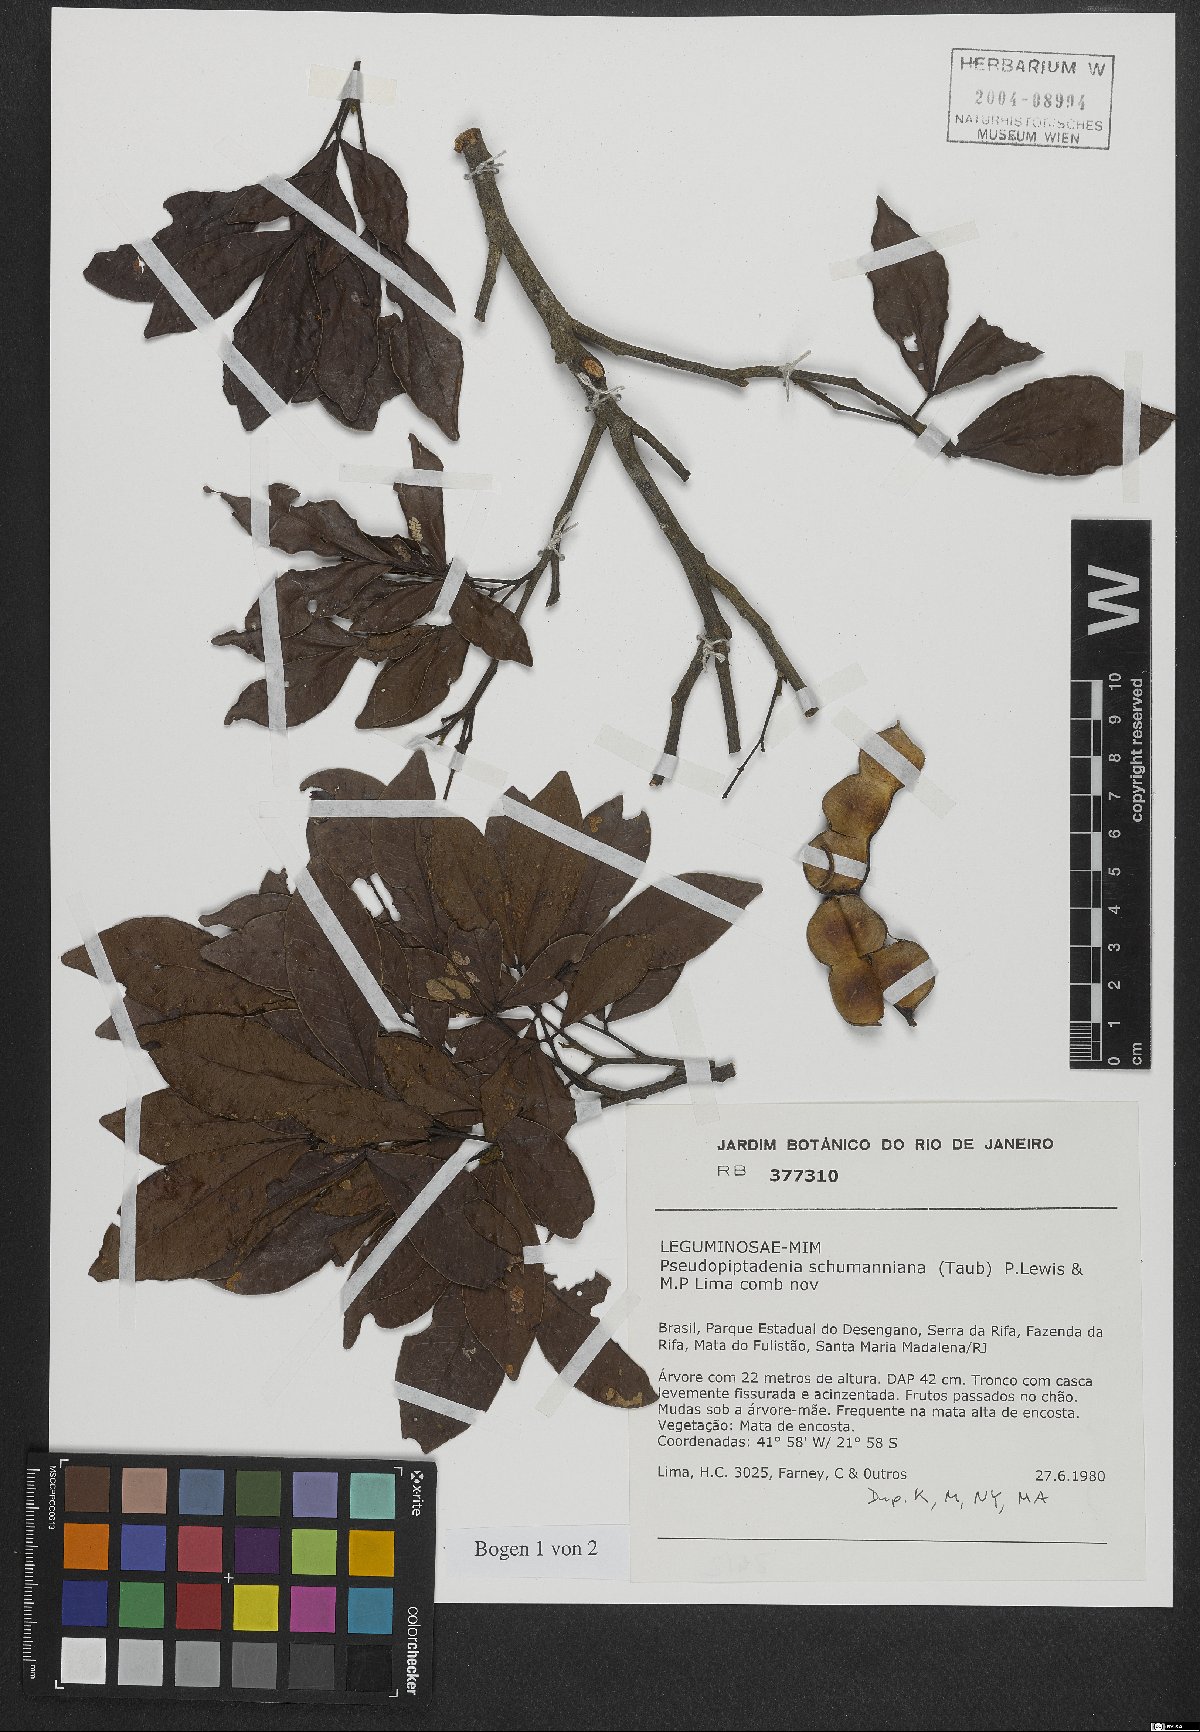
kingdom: Plantae
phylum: Tracheophyta
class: Magnoliopsida
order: Fabales
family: Fabaceae
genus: Pseudopiptadenia
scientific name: Pseudopiptadenia schumanniana
